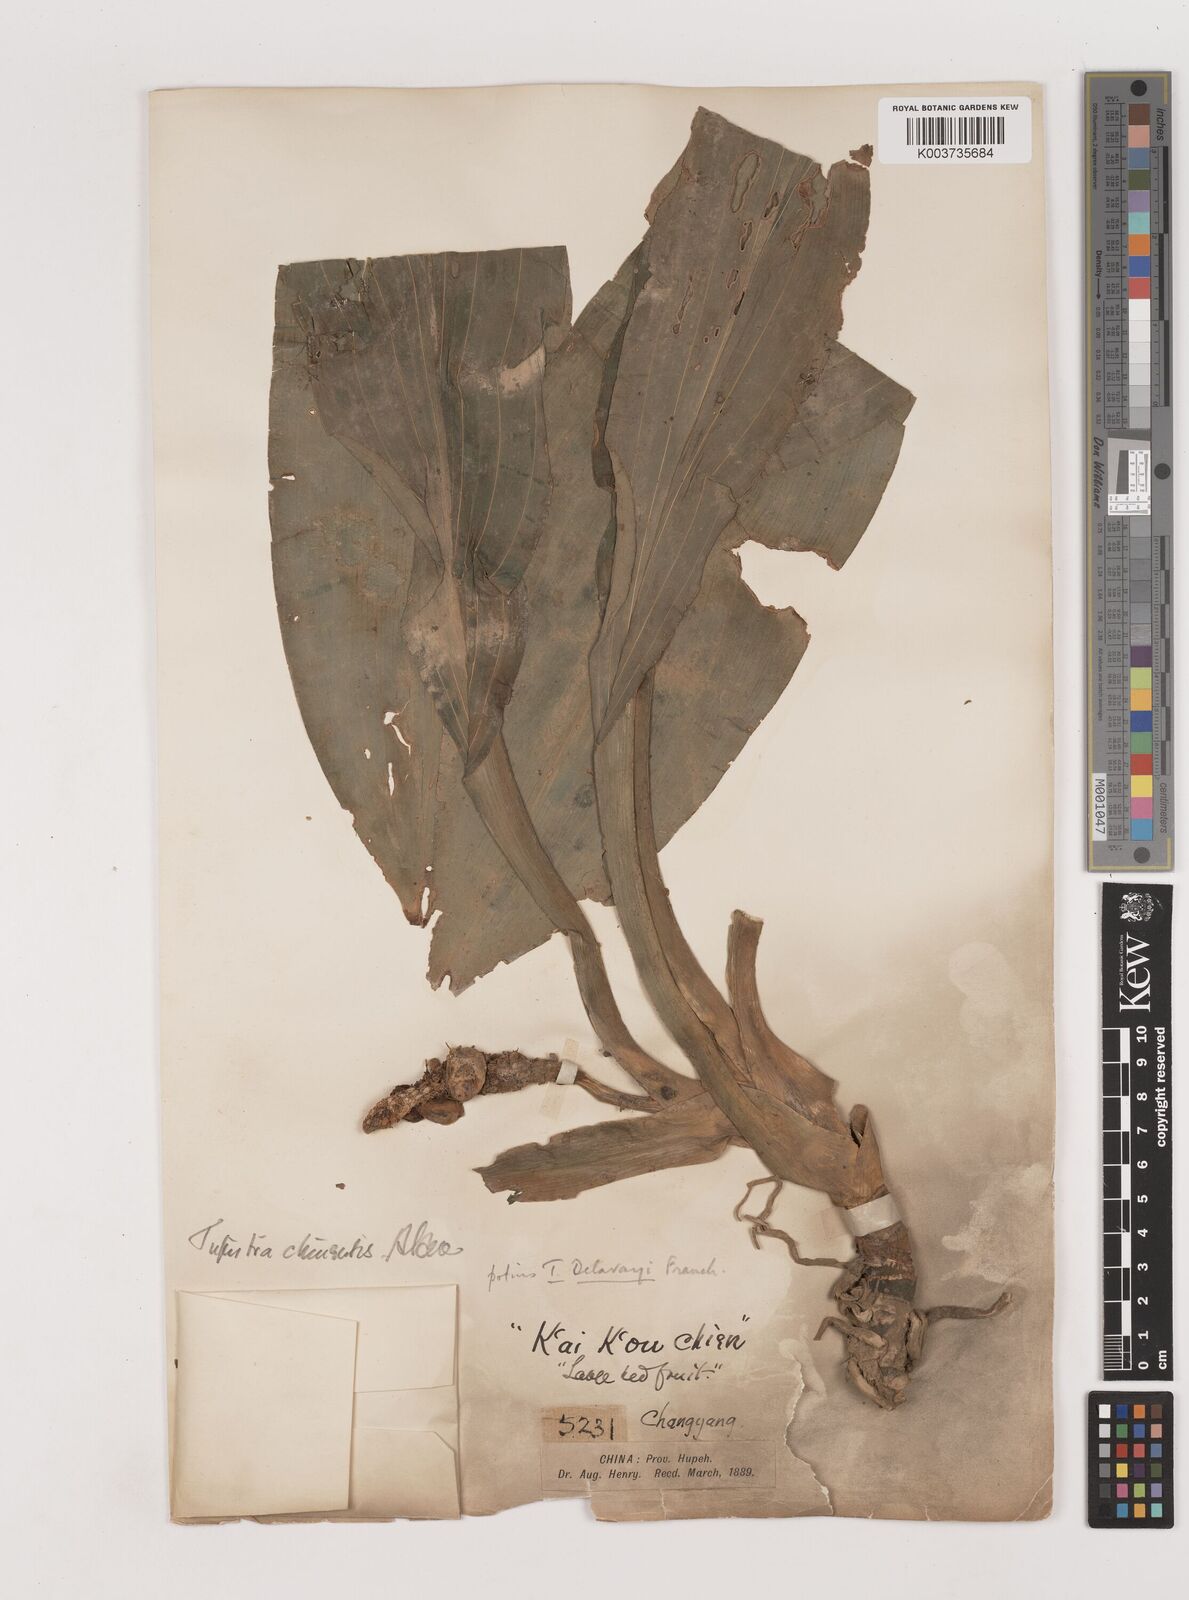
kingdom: Plantae
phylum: Tracheophyta
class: Liliopsida
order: Asparagales
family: Asparagaceae
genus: Rohdea
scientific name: Rohdea delavayi
